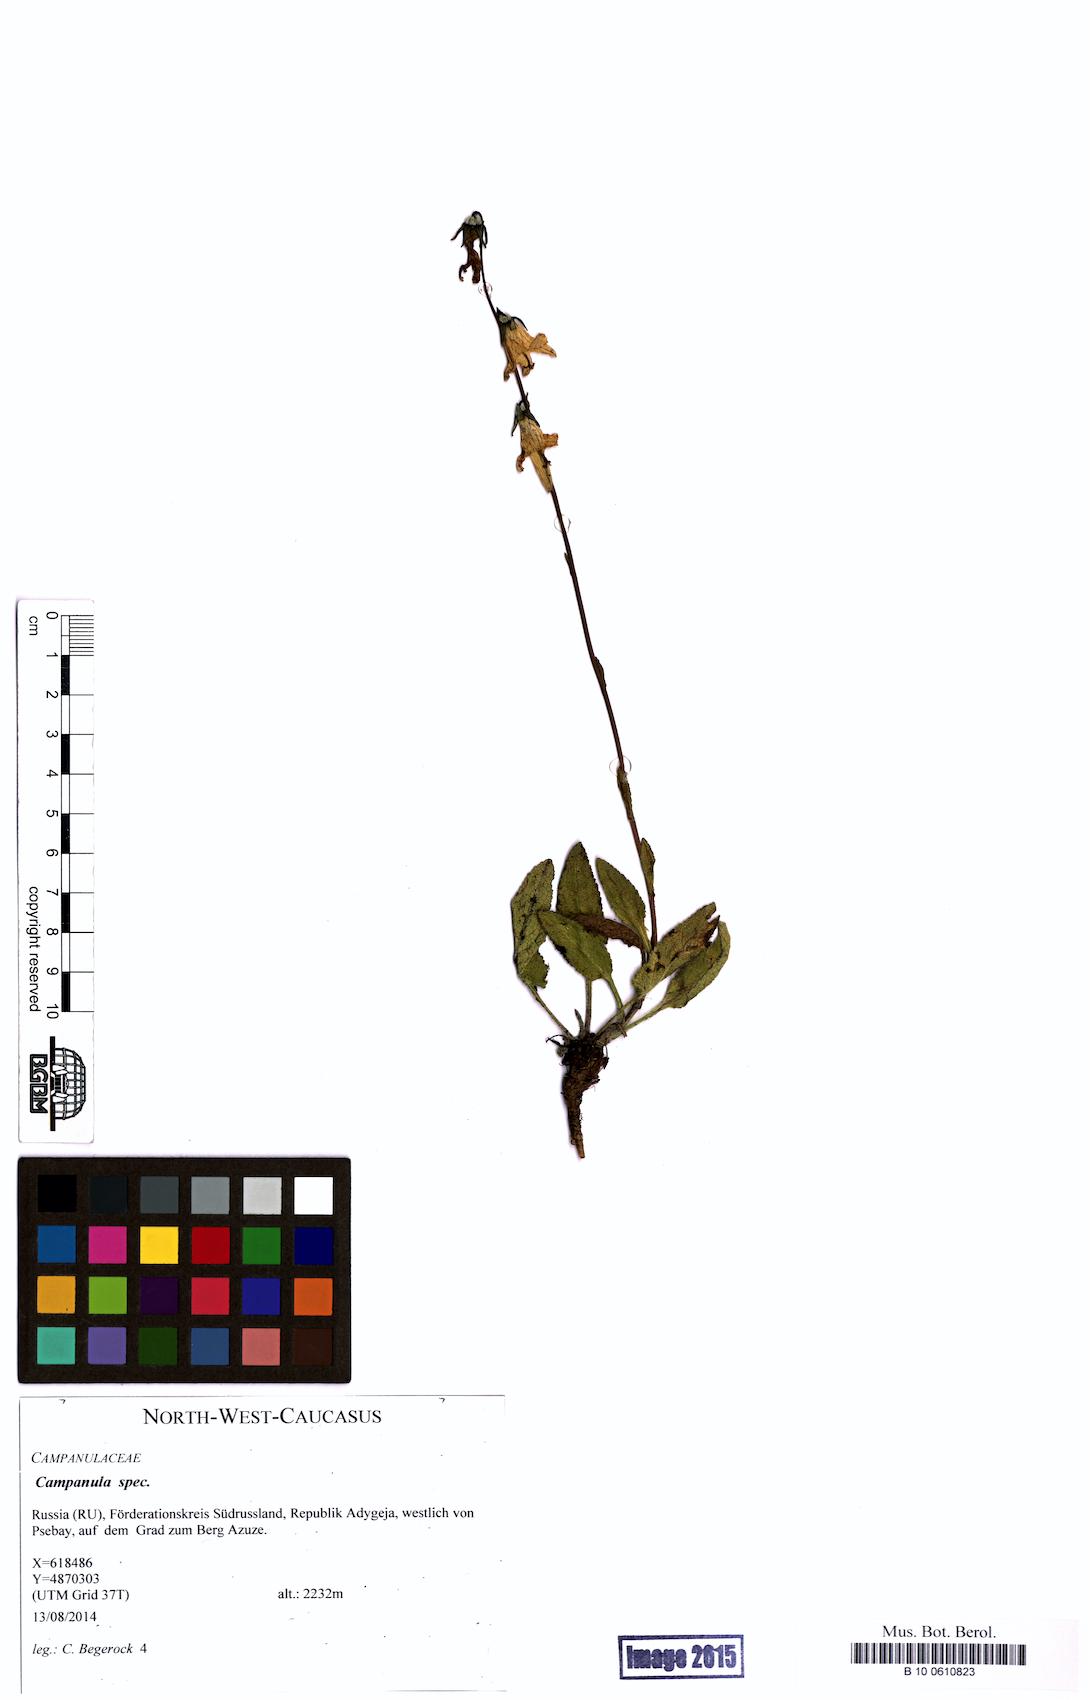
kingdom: Plantae
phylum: Tracheophyta
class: Magnoliopsida
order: Asterales
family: Campanulaceae
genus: Campanula
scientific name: Campanula
